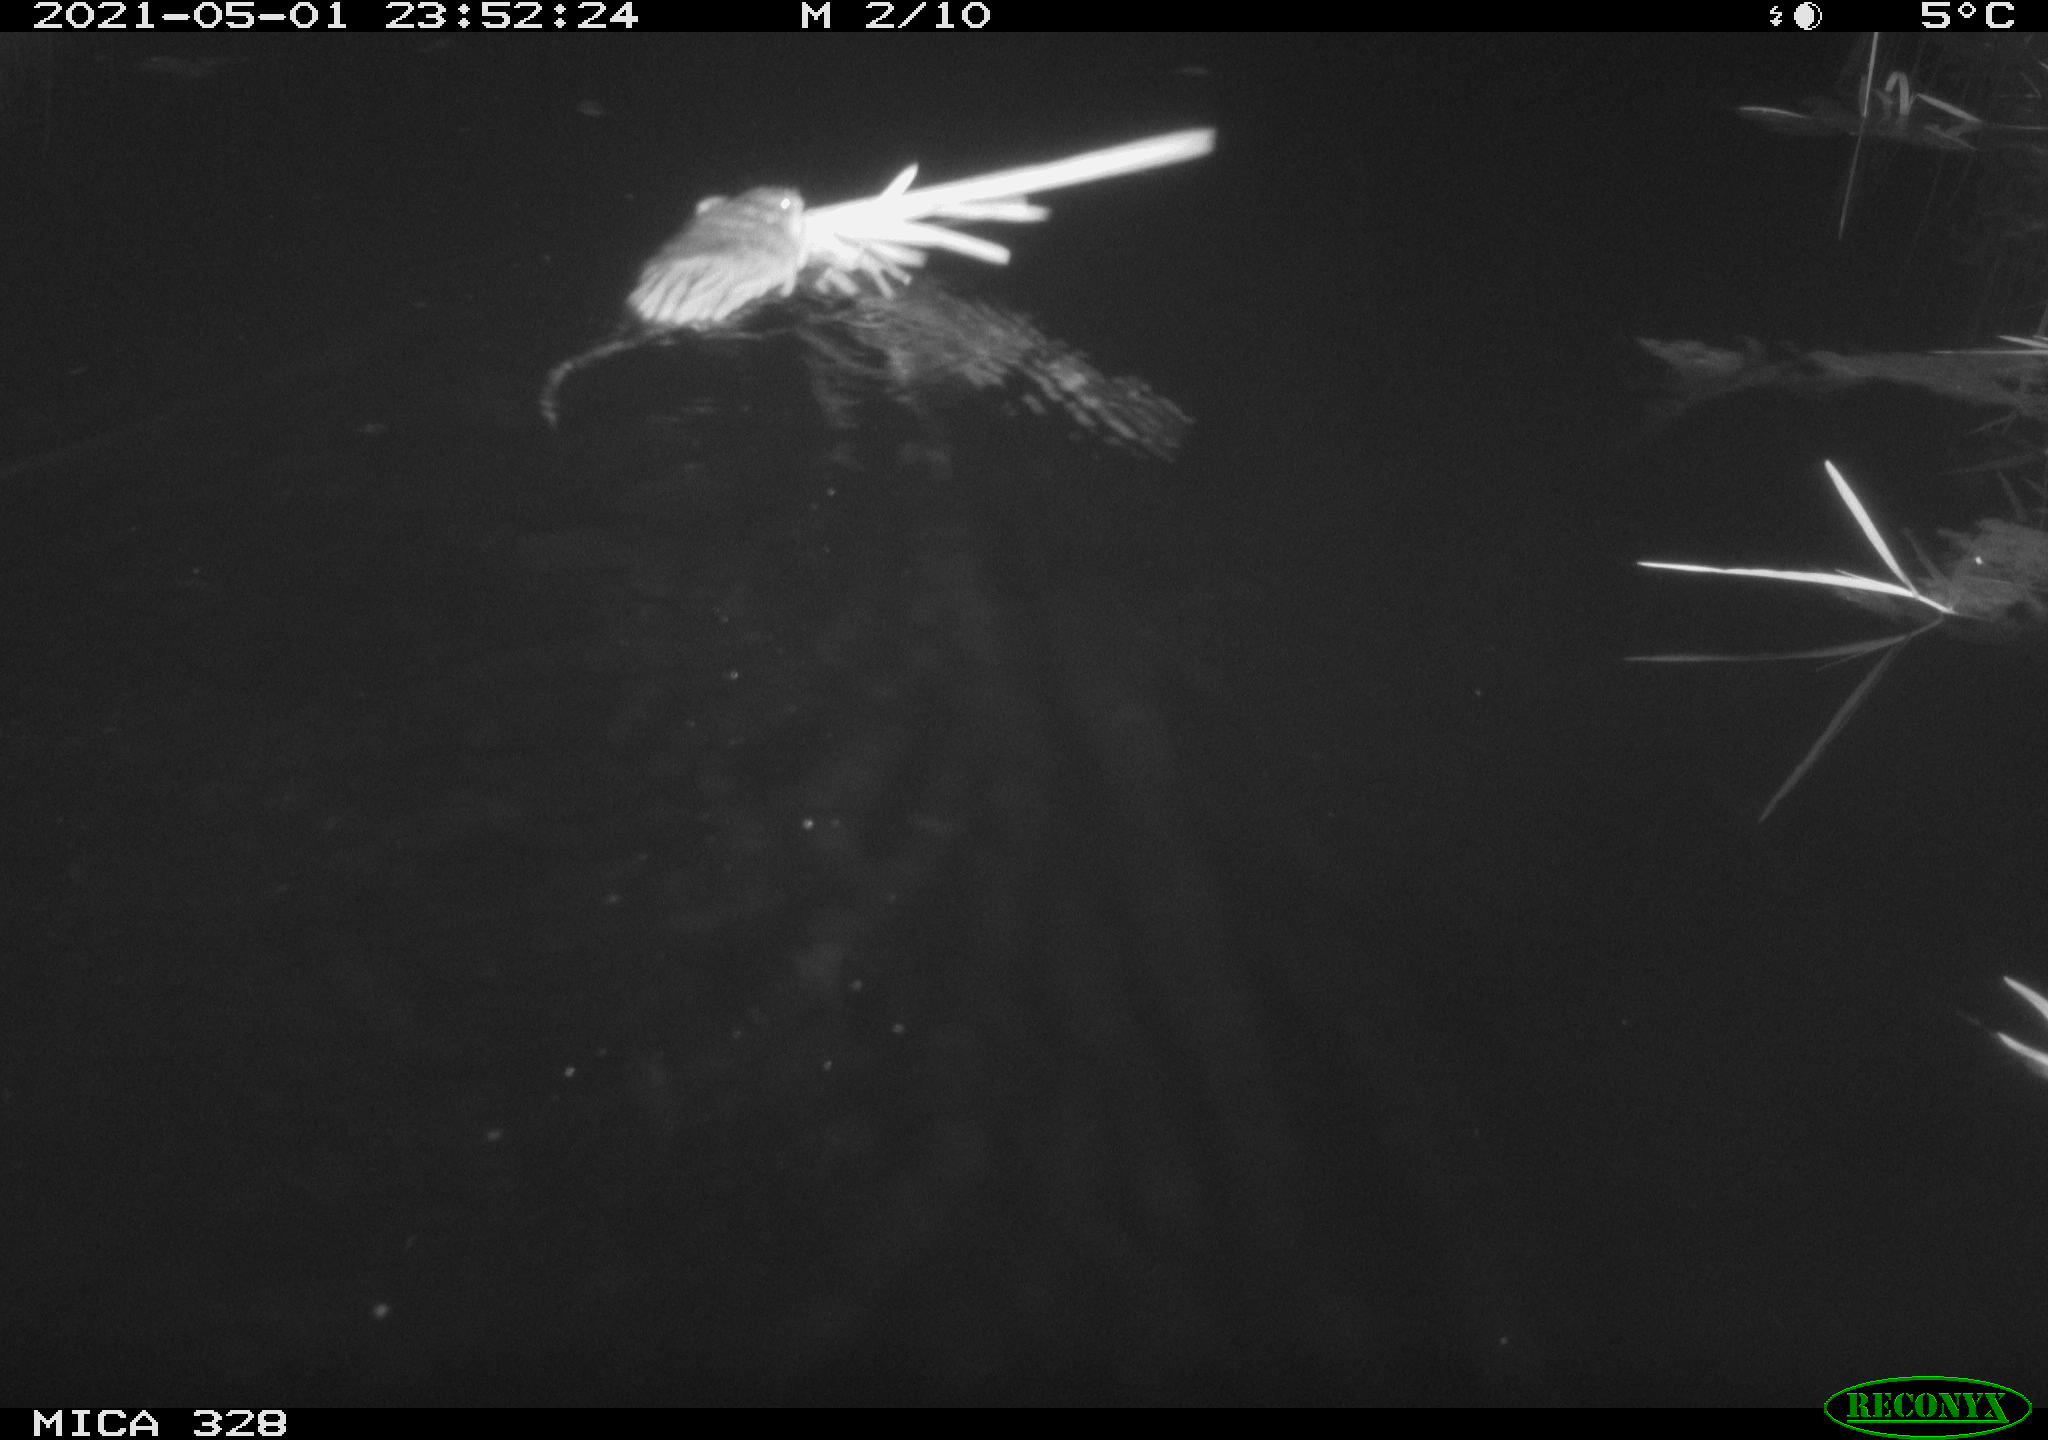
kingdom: Animalia
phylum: Chordata
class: Mammalia
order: Rodentia
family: Cricetidae
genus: Ondatra
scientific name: Ondatra zibethicus
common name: Muskrat
